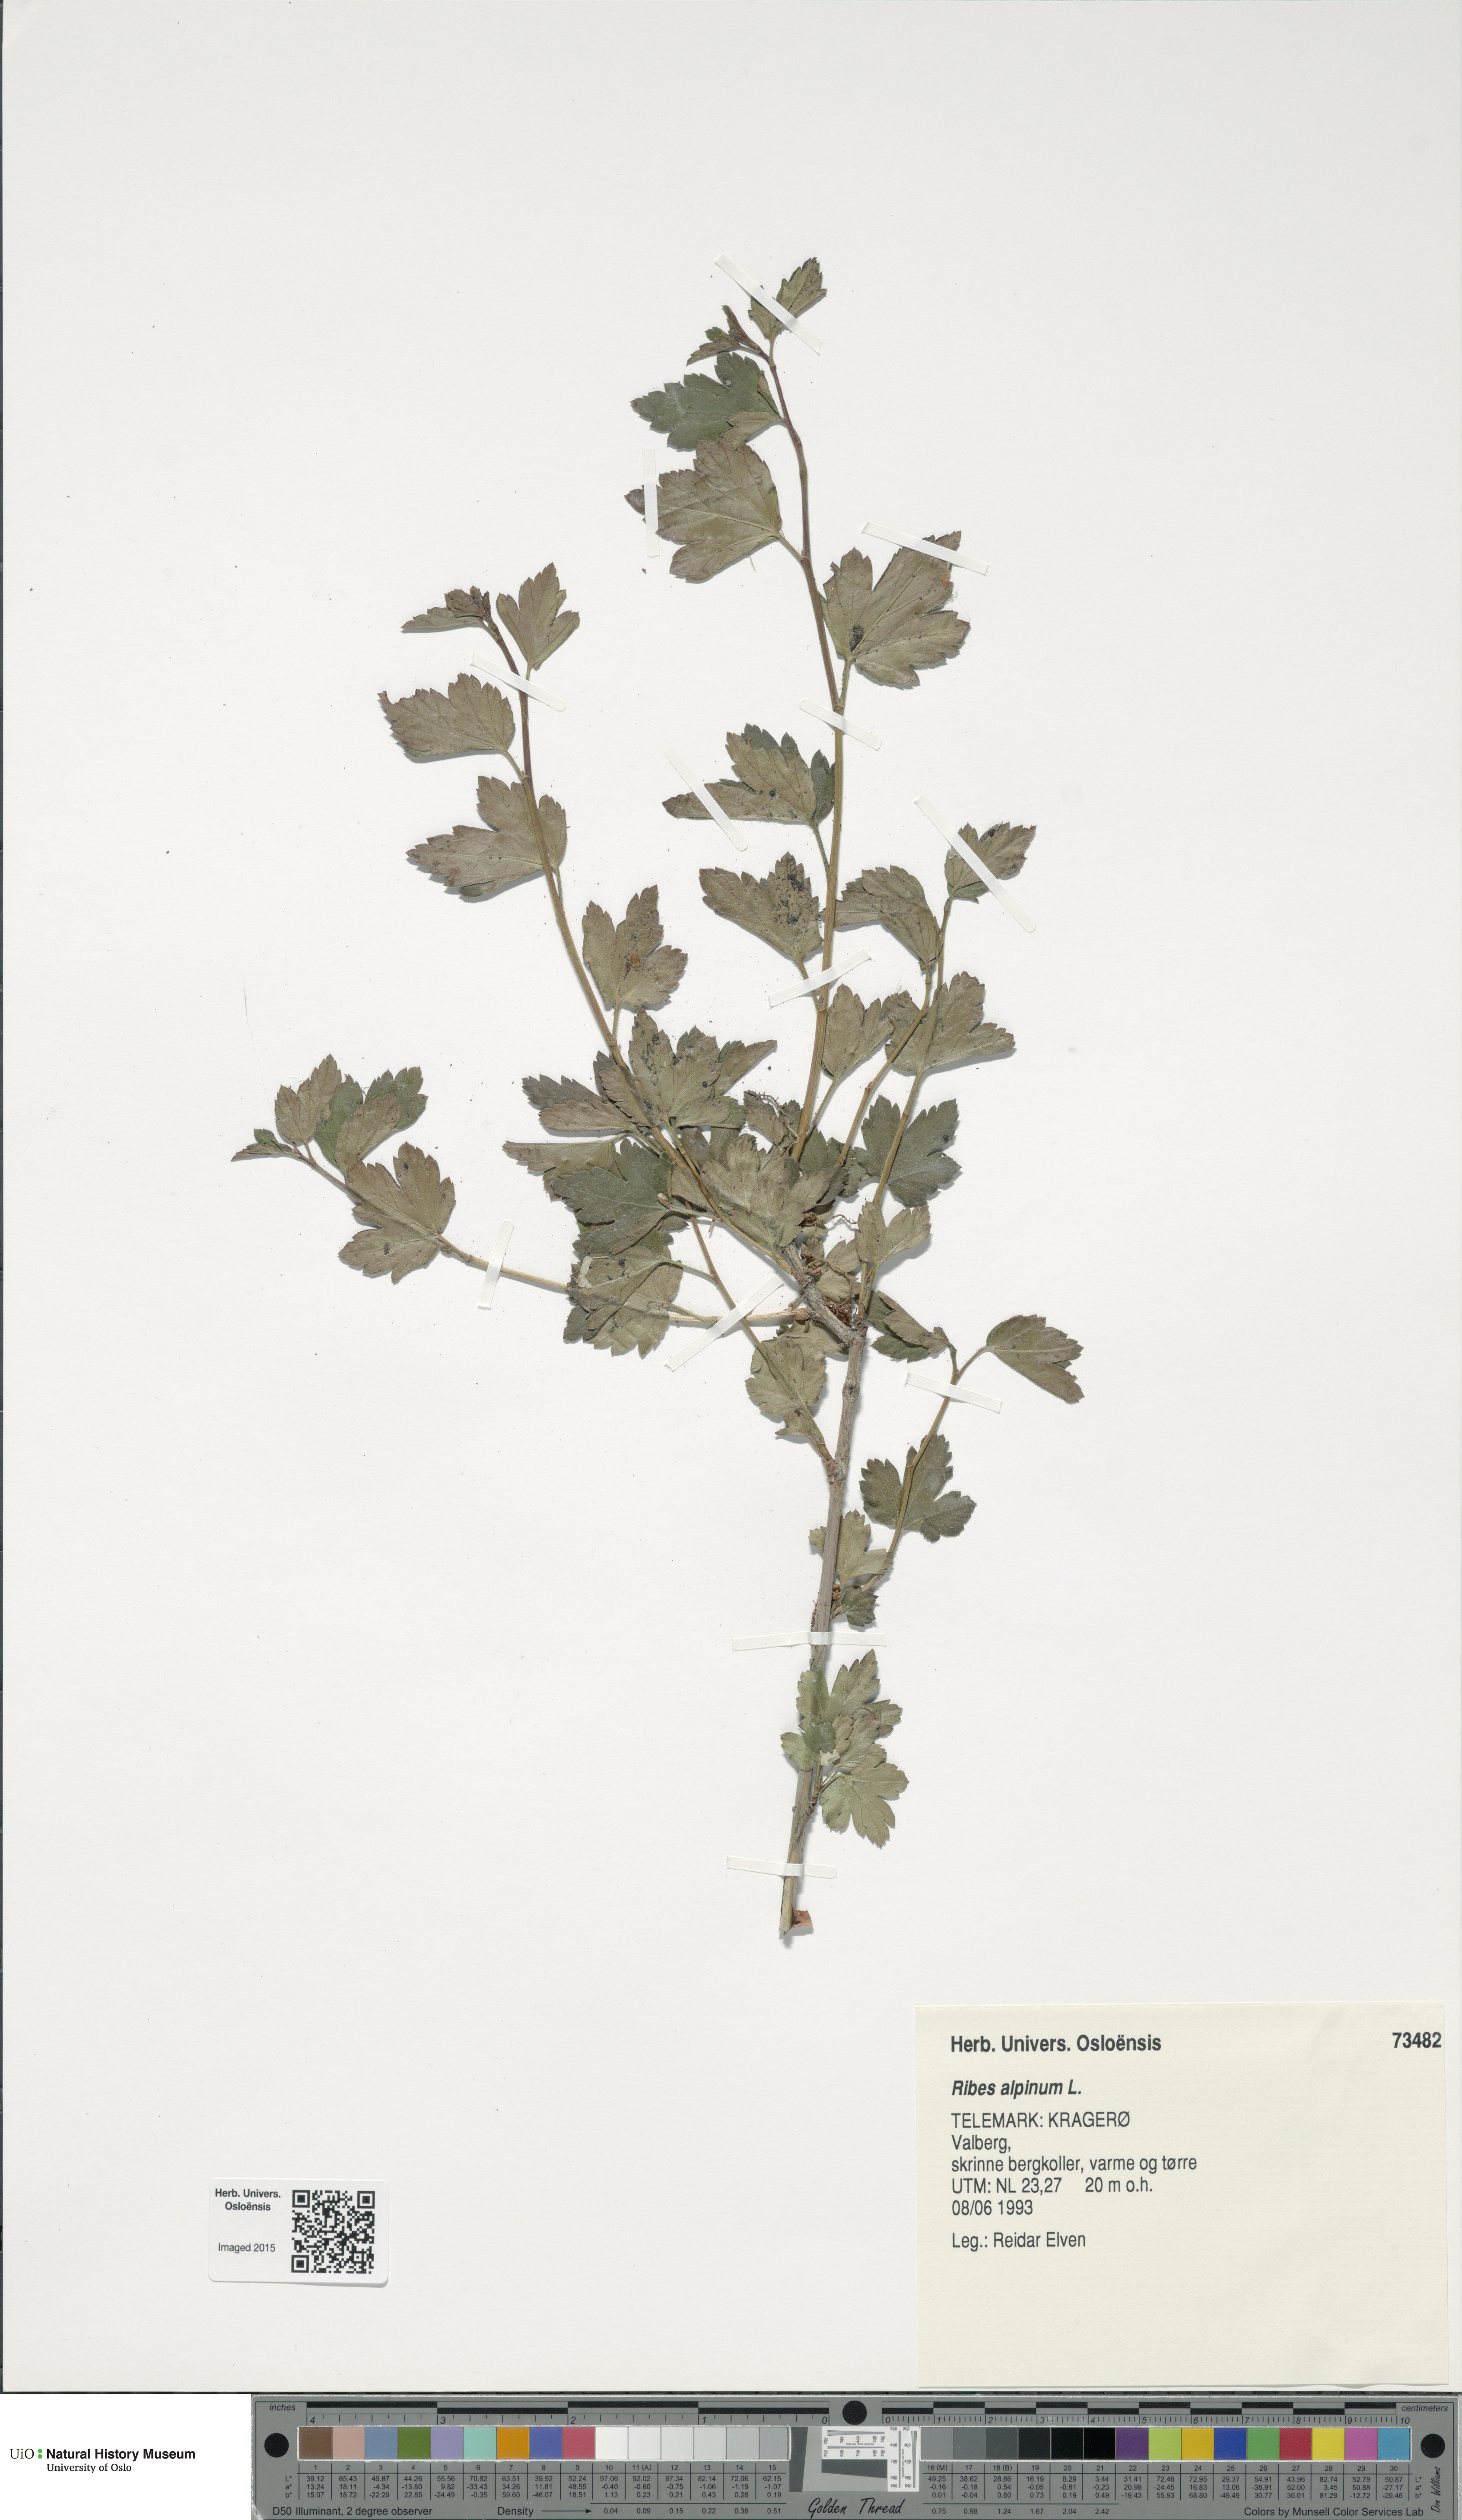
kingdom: Plantae
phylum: Tracheophyta
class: Magnoliopsida
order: Saxifragales
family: Grossulariaceae
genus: Ribes
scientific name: Ribes alpinum
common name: Alpine currant
